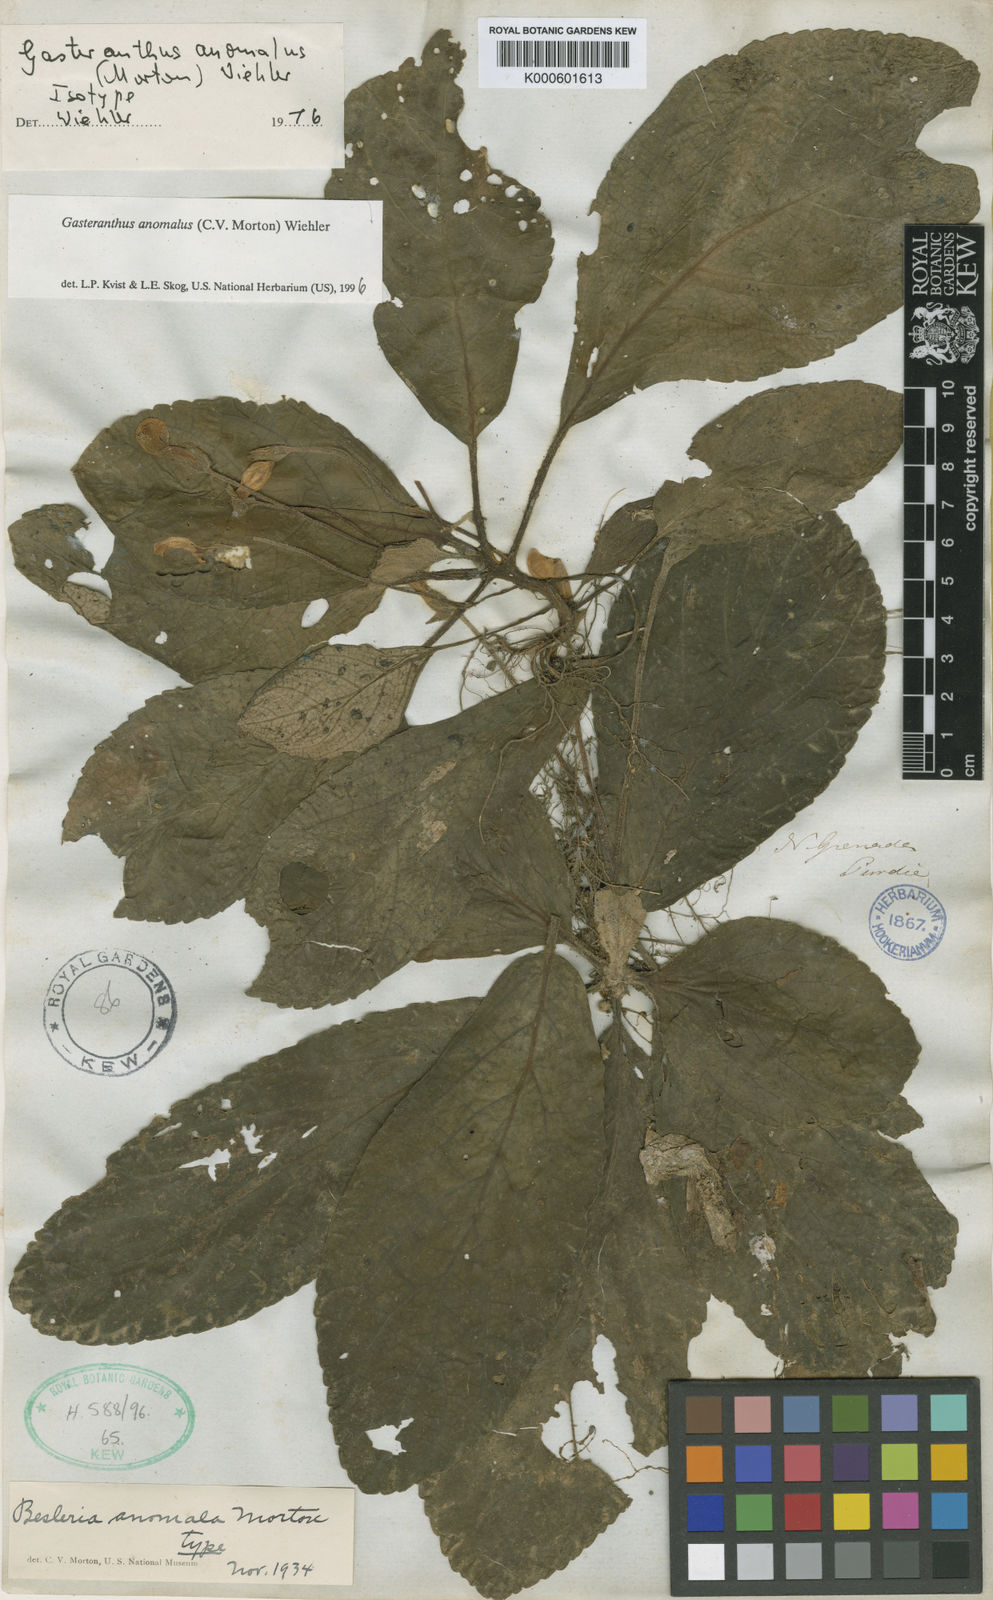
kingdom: Plantae
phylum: Tracheophyta
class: Magnoliopsida
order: Lamiales
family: Gesneriaceae
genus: Gasteranthus
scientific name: Gasteranthus anomalus
